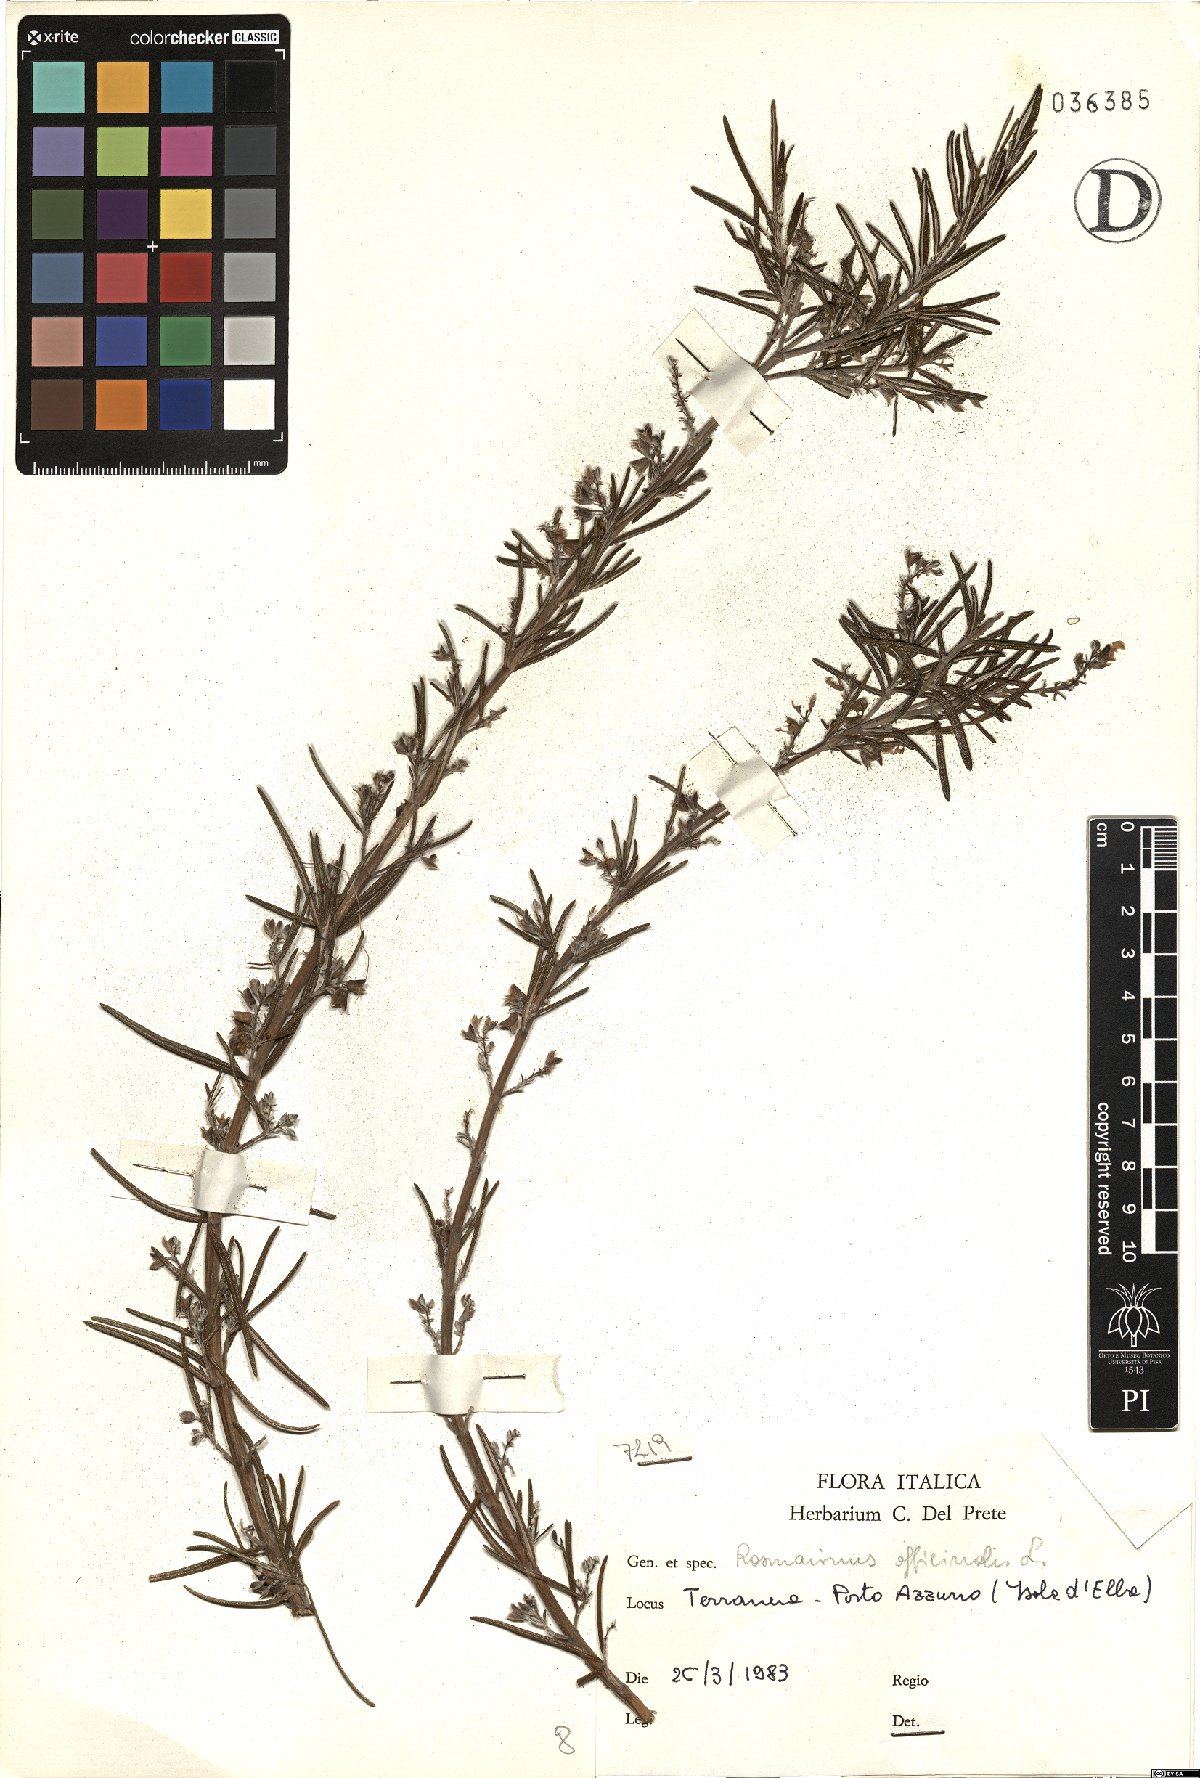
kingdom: Plantae
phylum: Tracheophyta
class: Magnoliopsida
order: Lamiales
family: Lamiaceae
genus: Salvia
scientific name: Salvia rosmarinus
